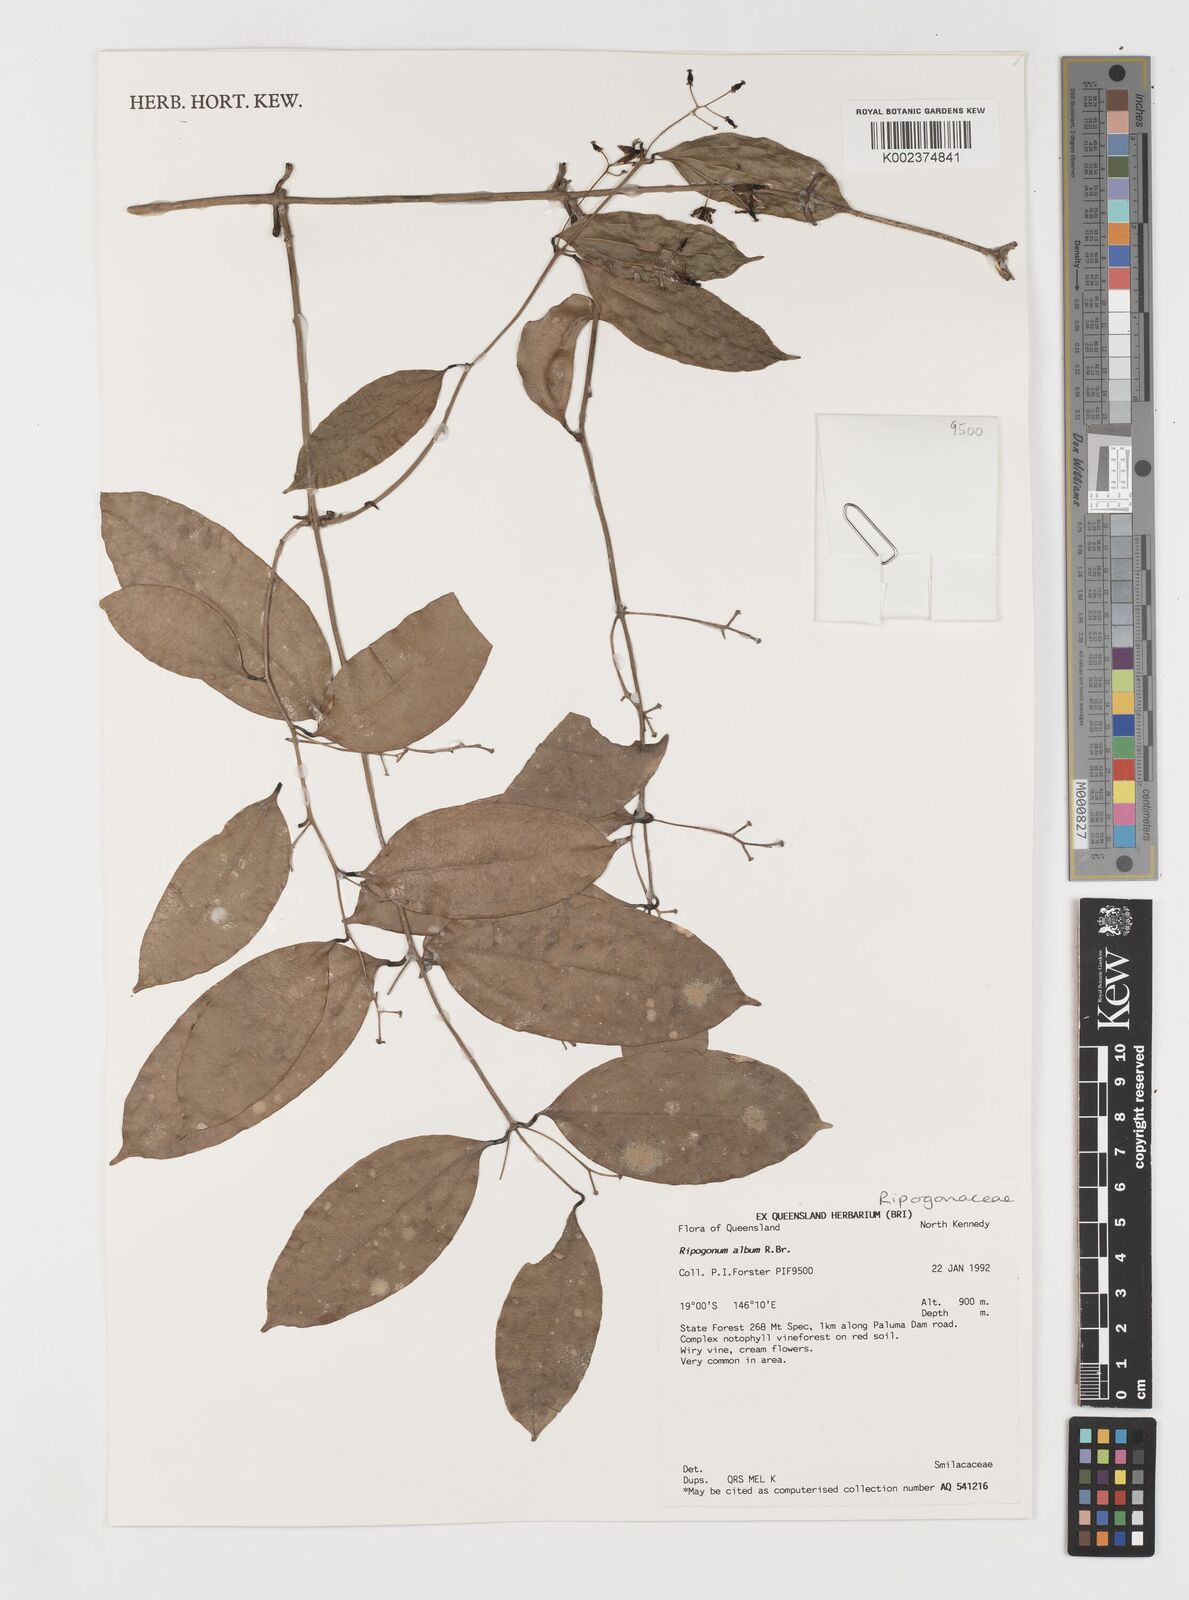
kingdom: Plantae
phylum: Tracheophyta
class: Liliopsida
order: Liliales
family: Ripogonaceae
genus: Ripogonum
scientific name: Ripogonum album
